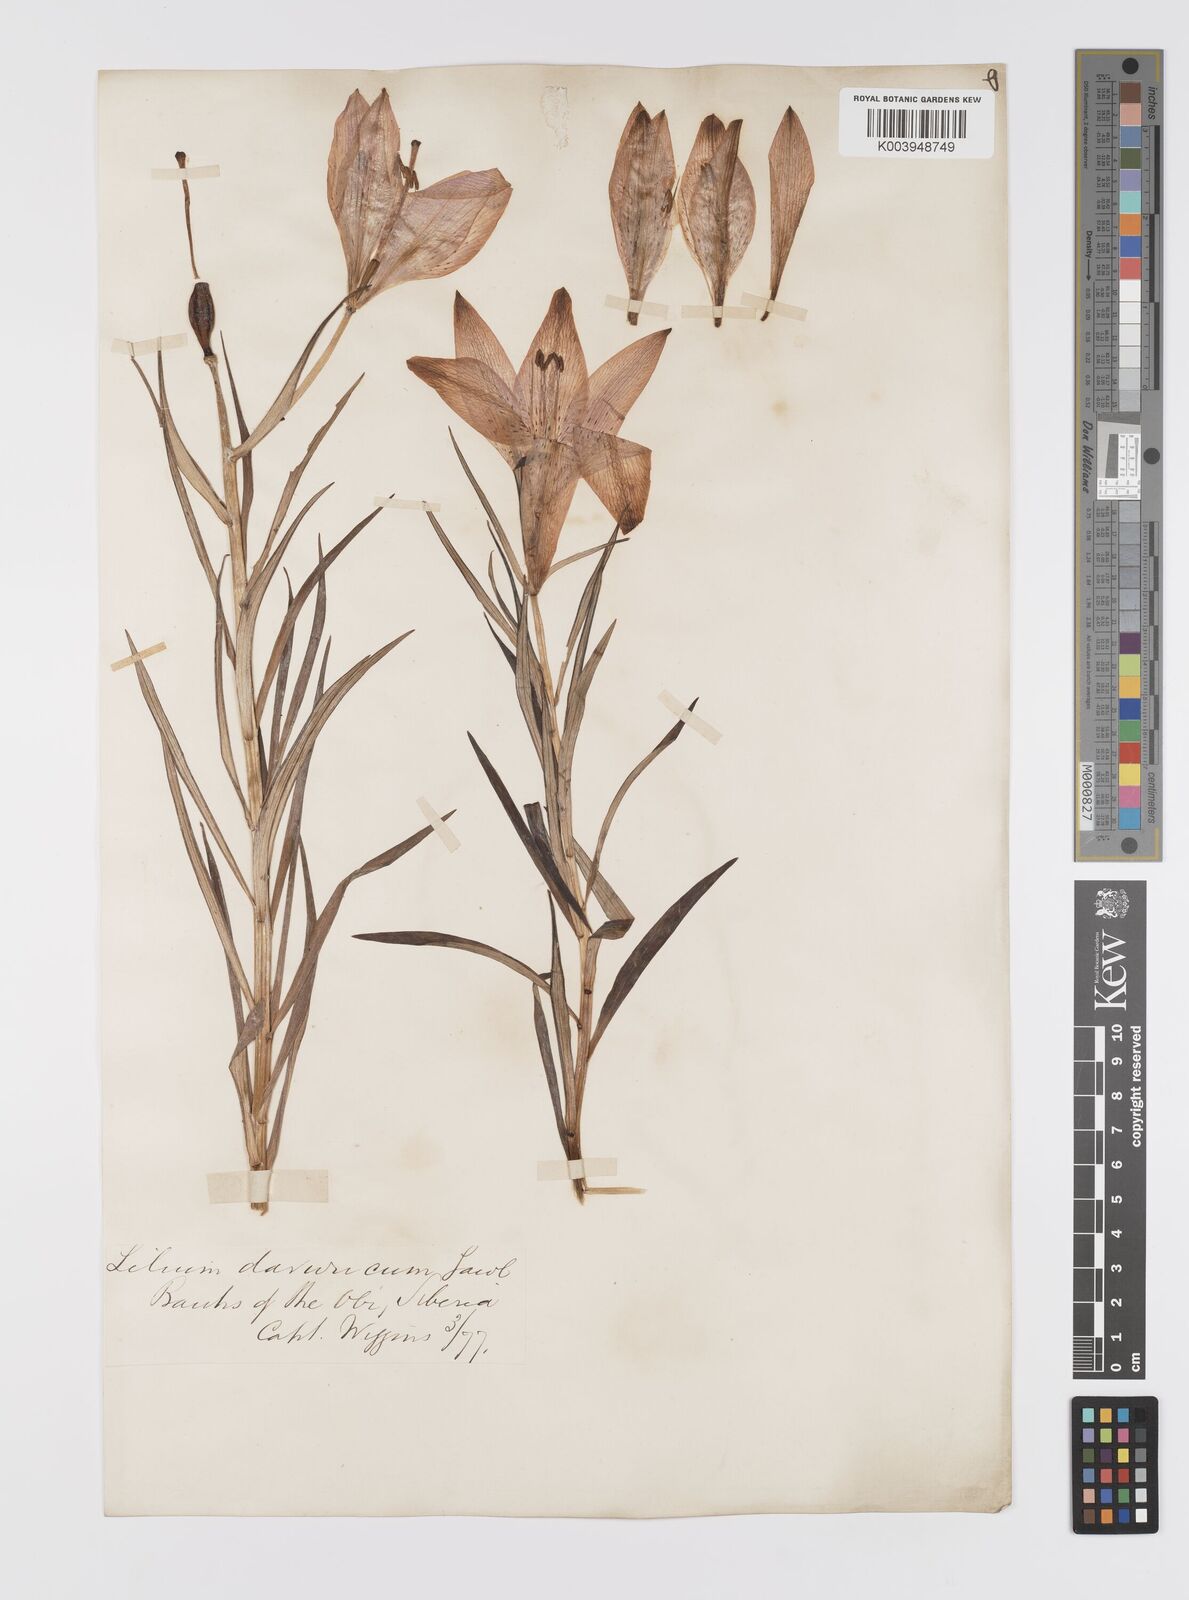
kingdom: Plantae
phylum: Tracheophyta
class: Liliopsida
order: Liliales
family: Liliaceae
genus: Lilium
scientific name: Lilium pensylvanicum
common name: Candlestick lily
